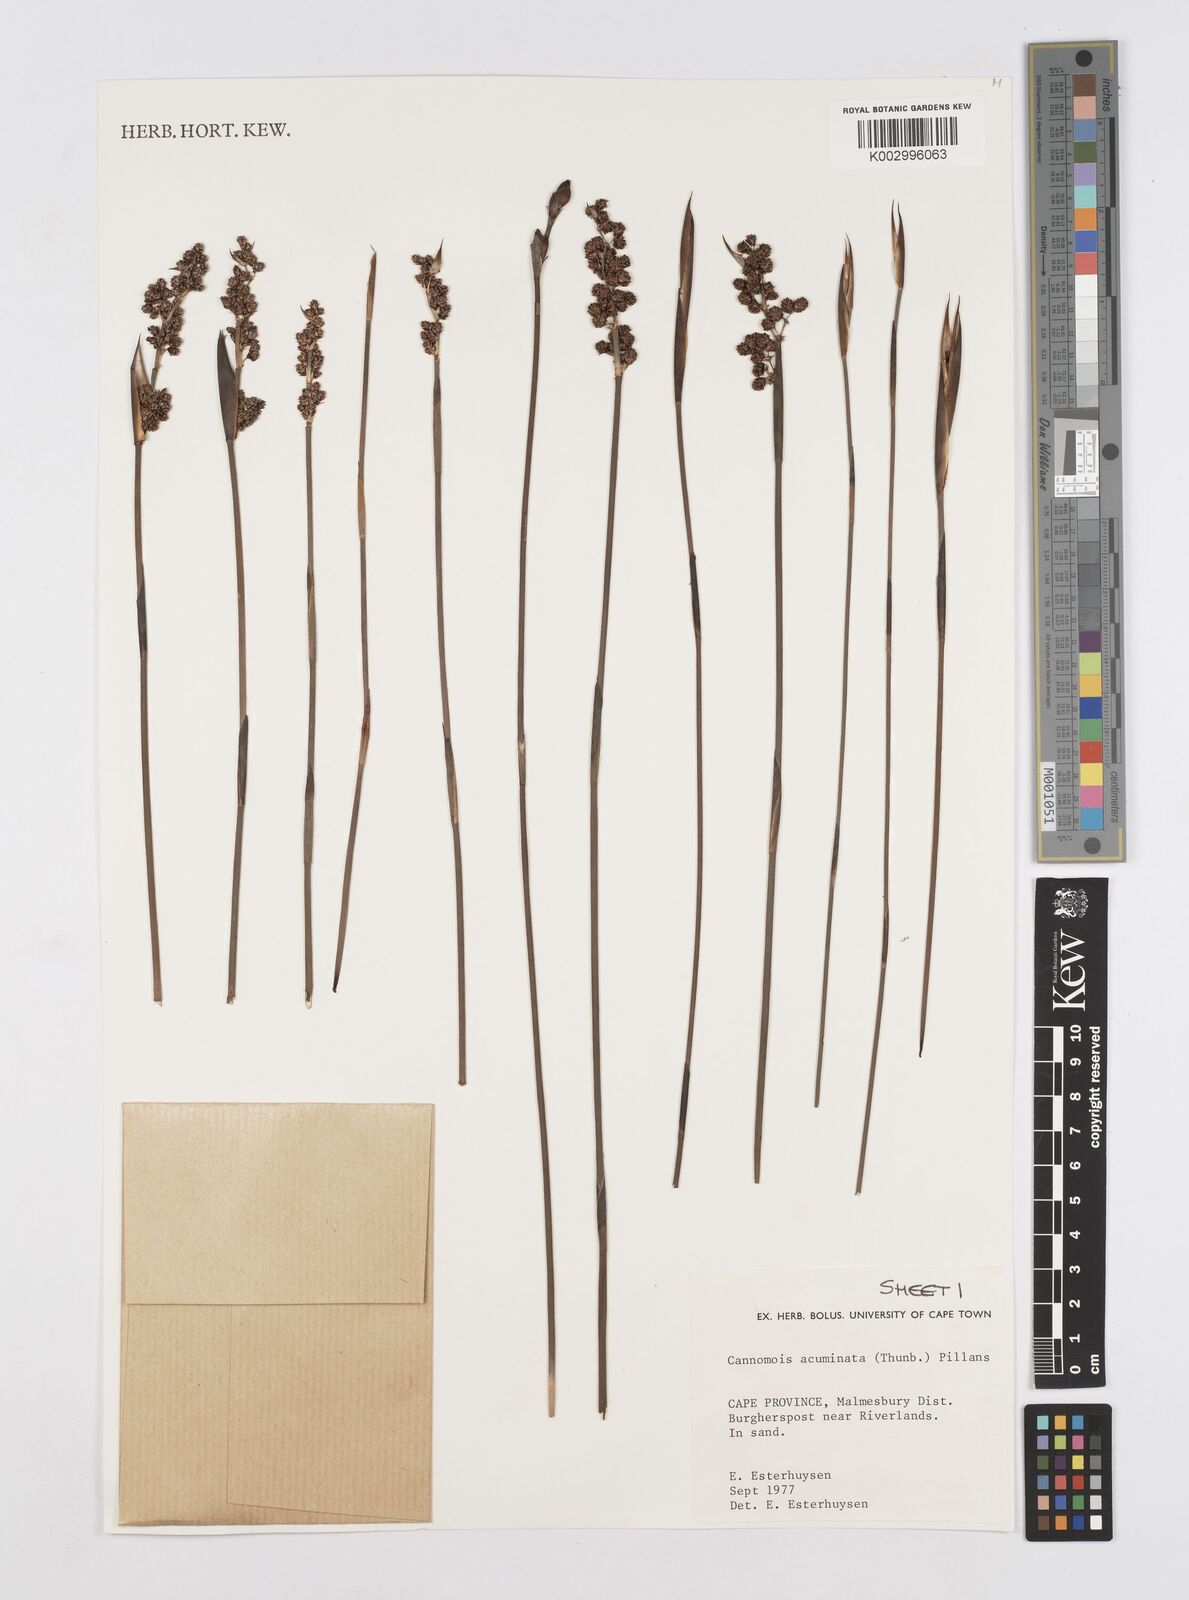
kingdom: Plantae
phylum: Tracheophyta
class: Liliopsida
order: Poales
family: Restionaceae
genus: Cannomois
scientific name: Cannomois parviflora
